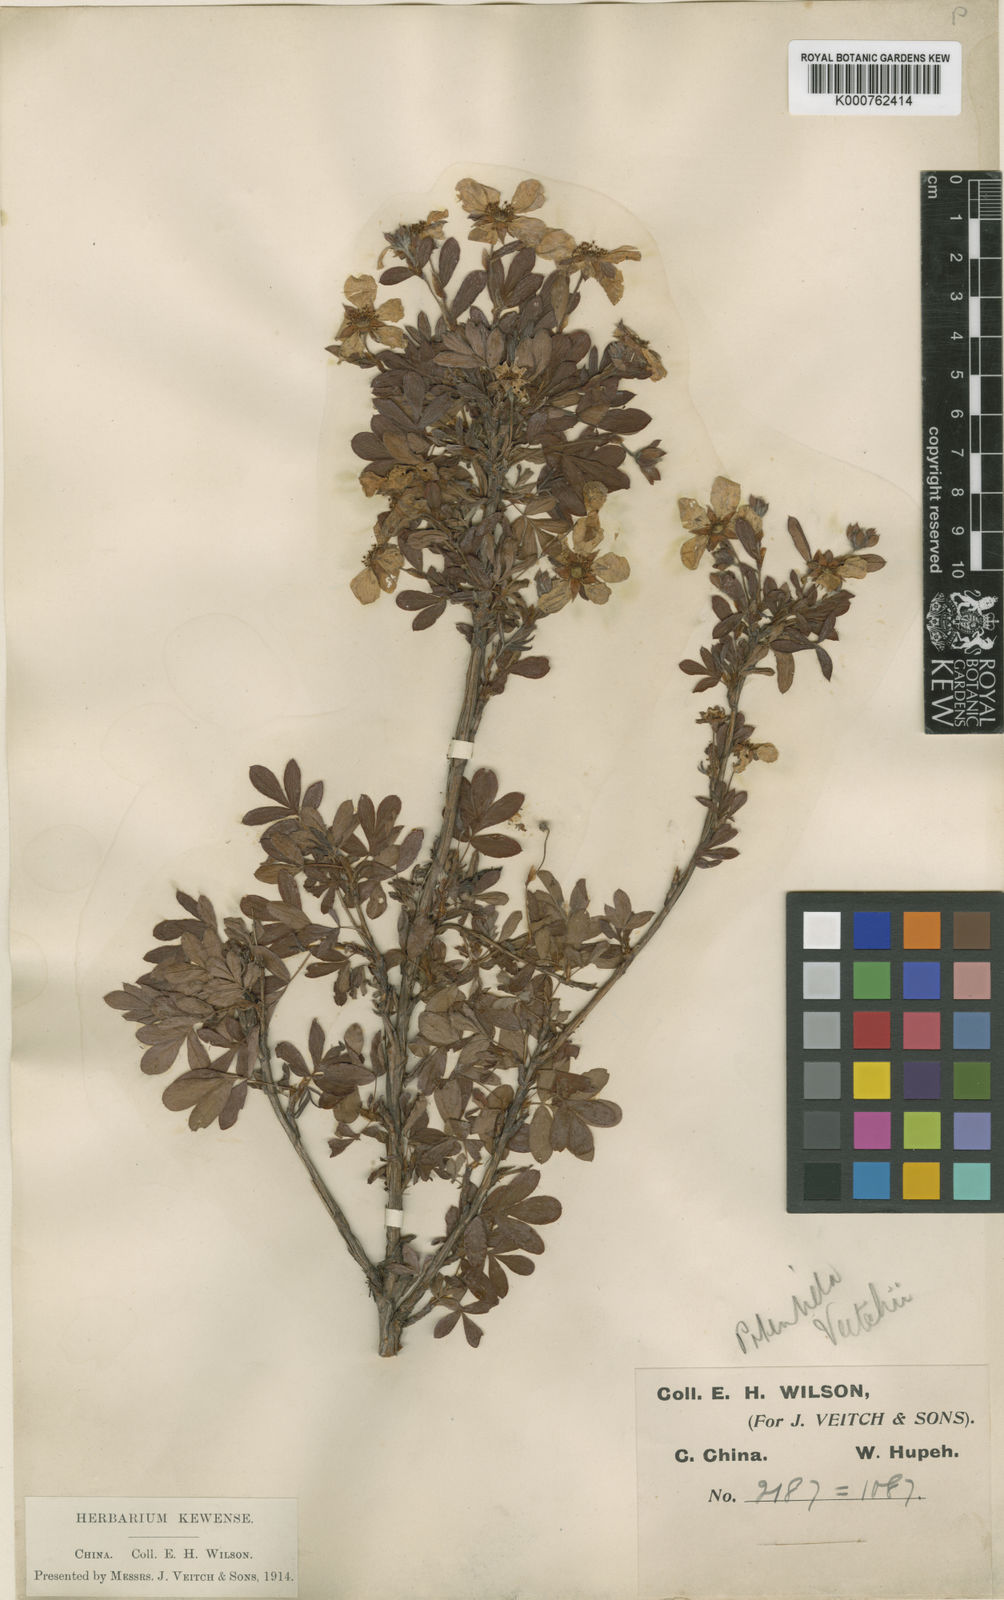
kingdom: Plantae
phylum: Tracheophyta
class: Magnoliopsida
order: Rosales
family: Rosaceae
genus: Dasiphora
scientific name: Dasiphora fruticosa
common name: Shrubby cinquefoil
